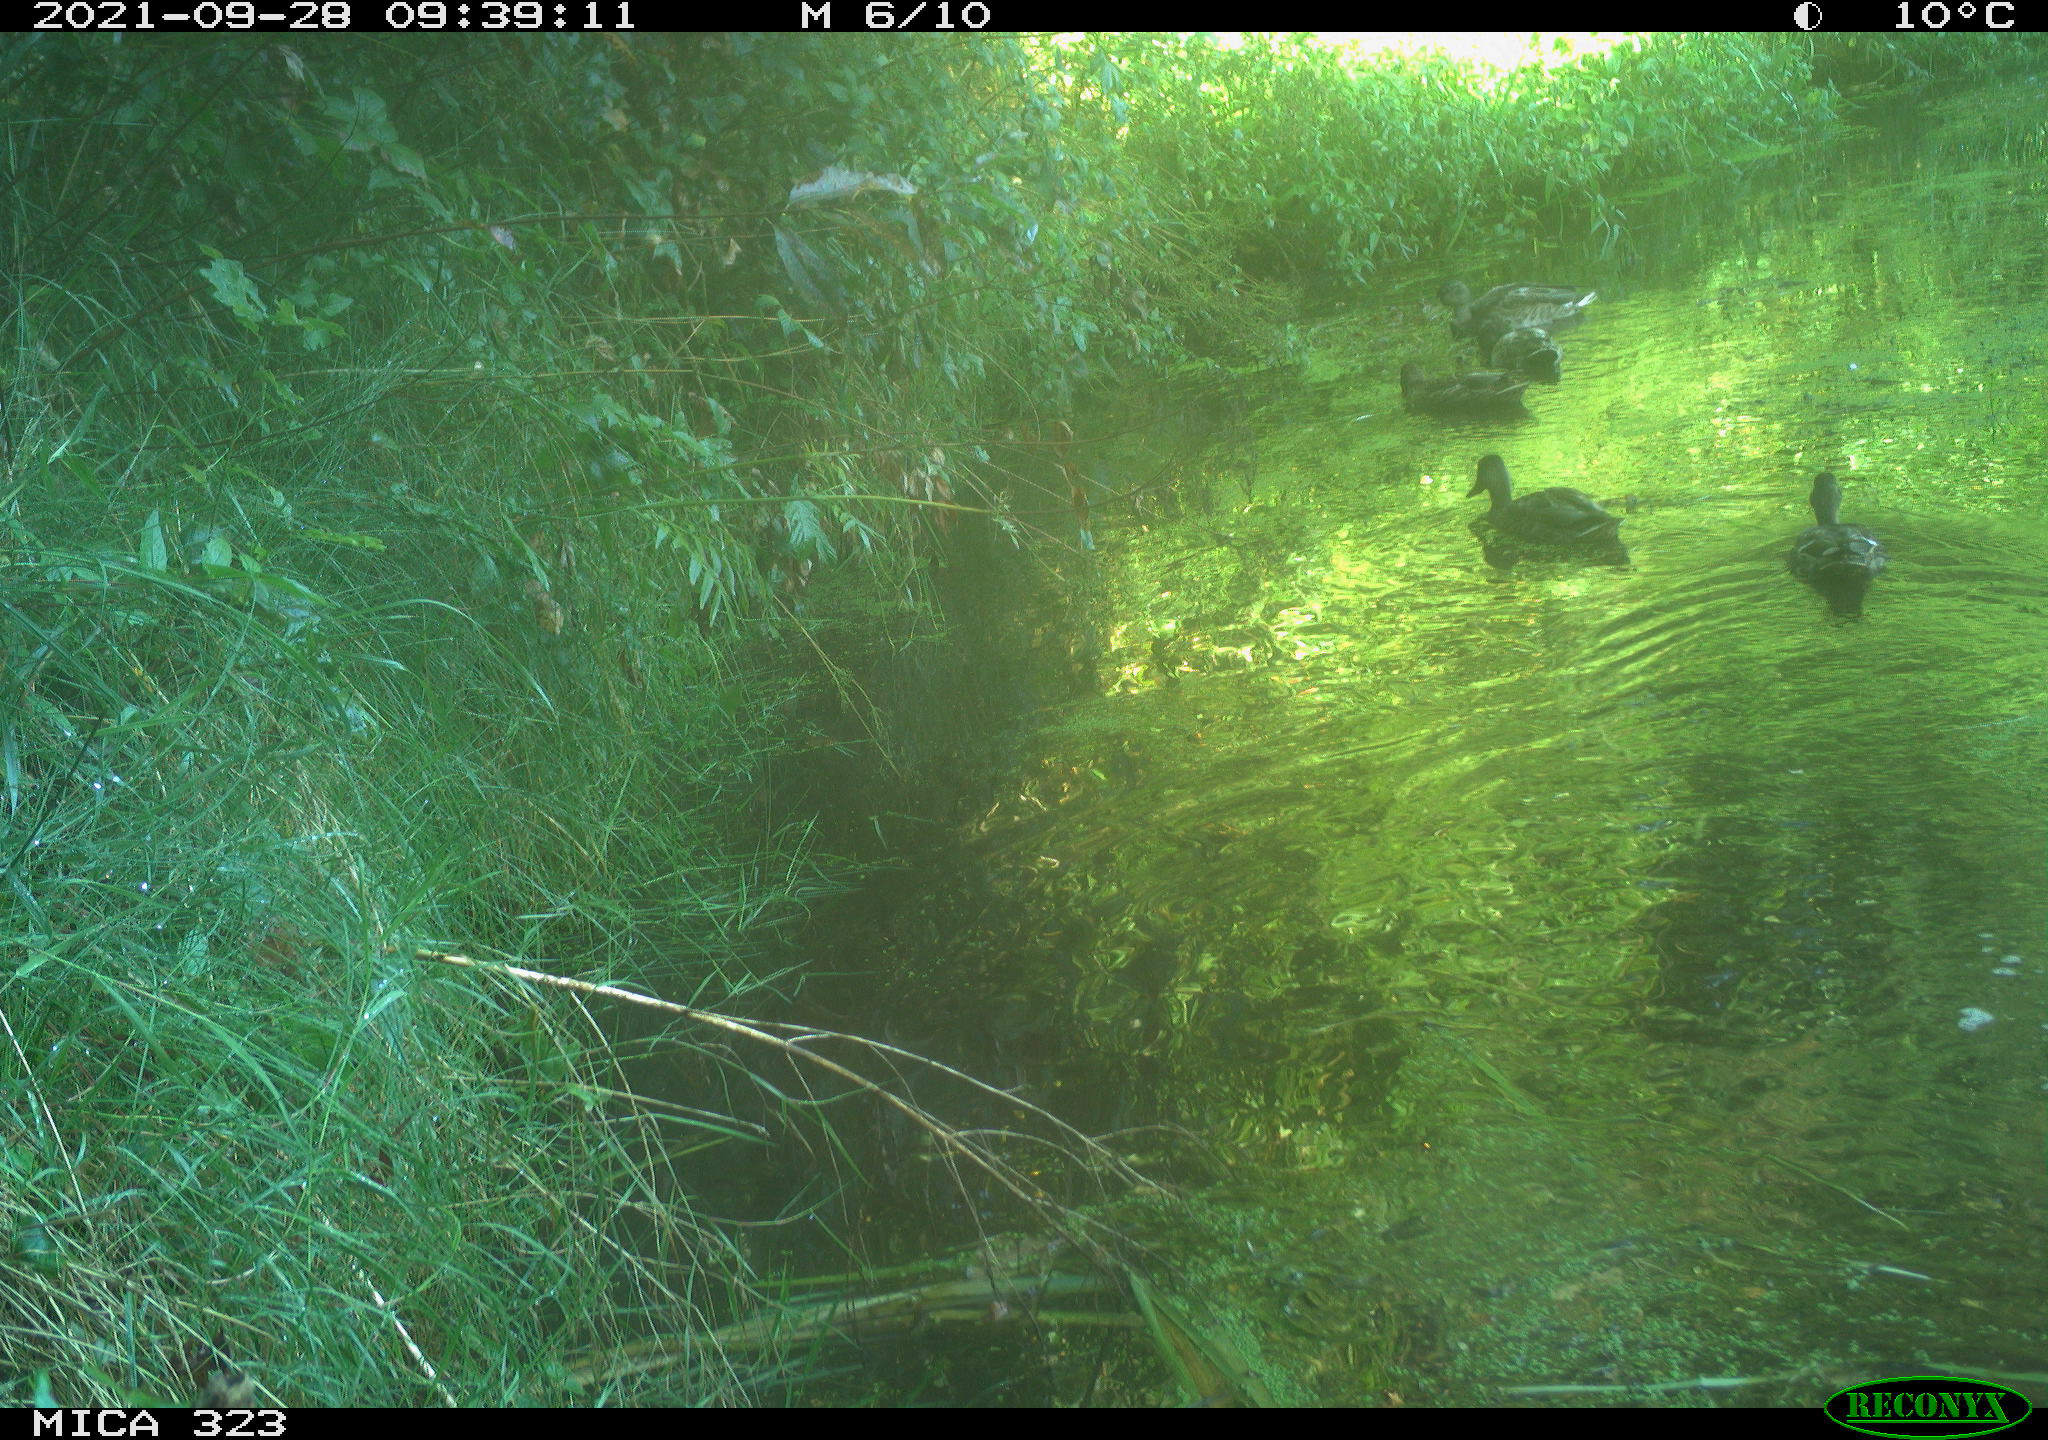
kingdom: Animalia
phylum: Chordata
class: Aves
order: Anseriformes
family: Anatidae
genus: Anas
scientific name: Anas platyrhynchos
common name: Mallard
